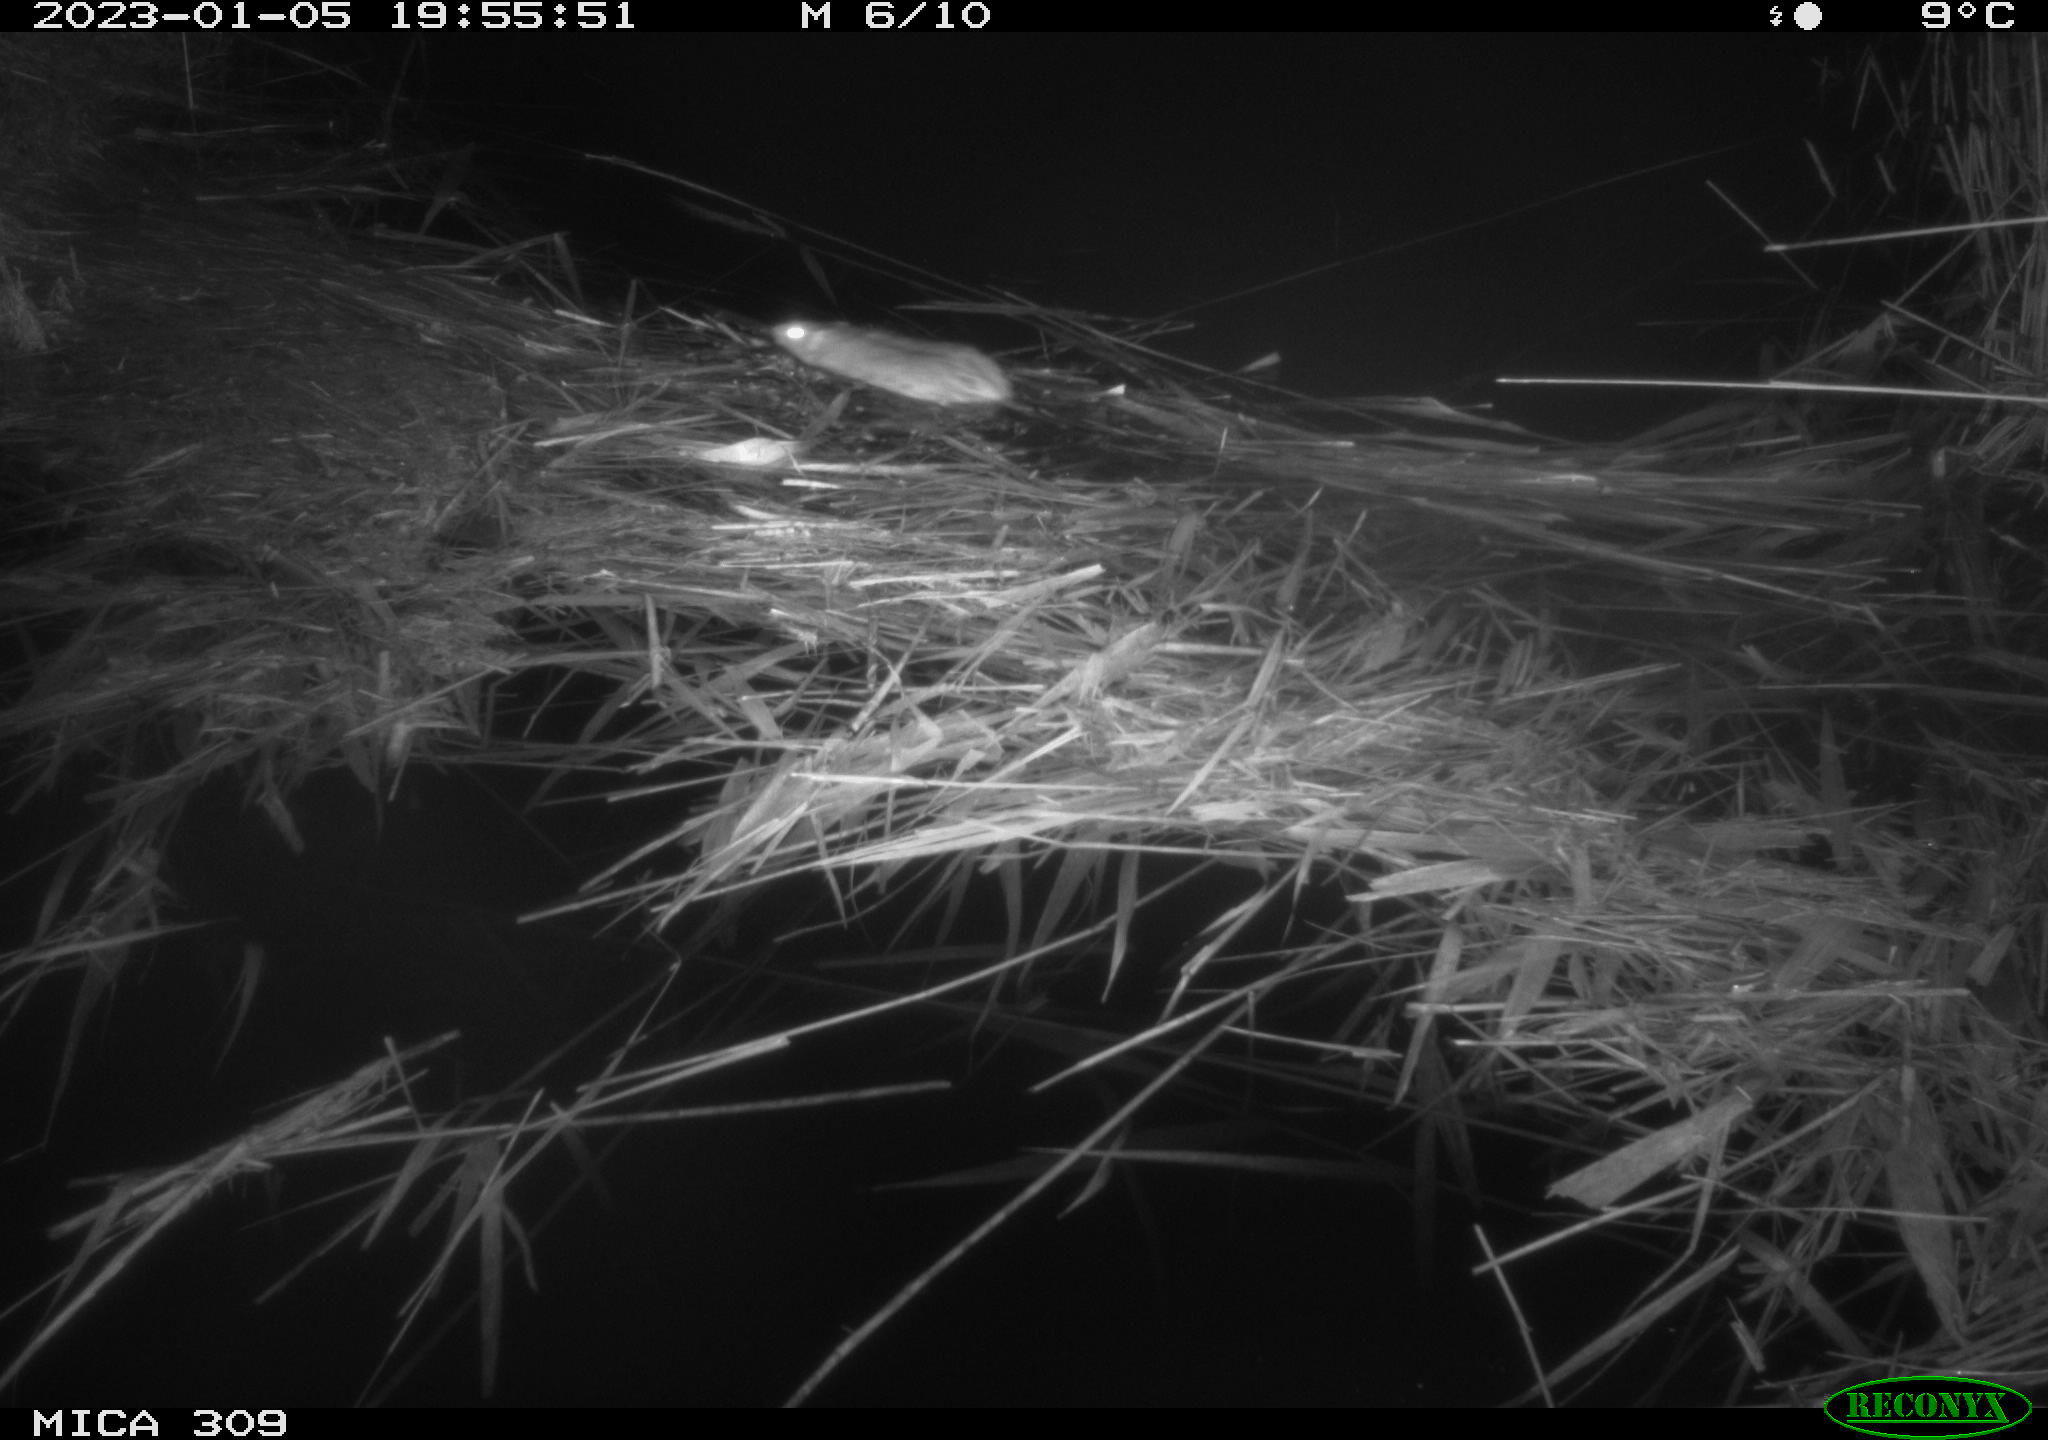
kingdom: Animalia
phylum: Chordata
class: Mammalia
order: Rodentia
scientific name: Rodentia
